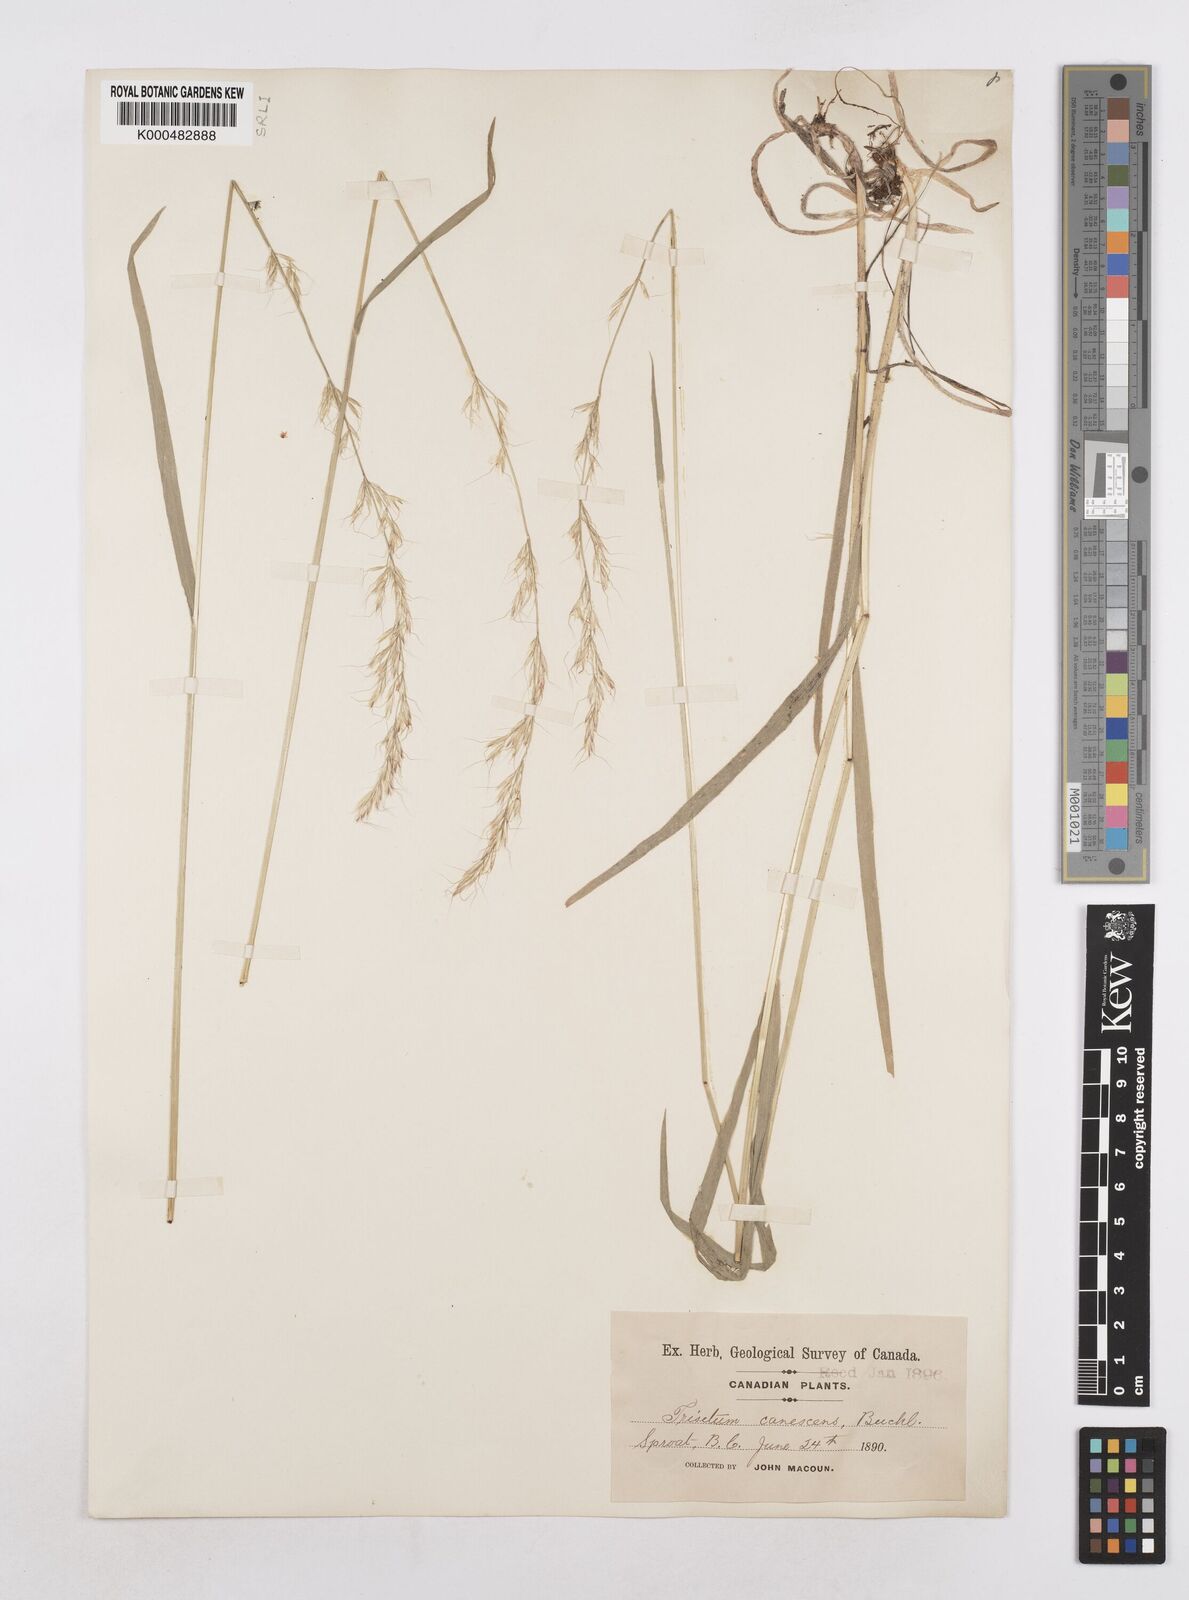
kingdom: Plantae
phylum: Tracheophyta
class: Liliopsida
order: Poales
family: Poaceae
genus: Graphephorum
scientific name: Graphephorum canescens
